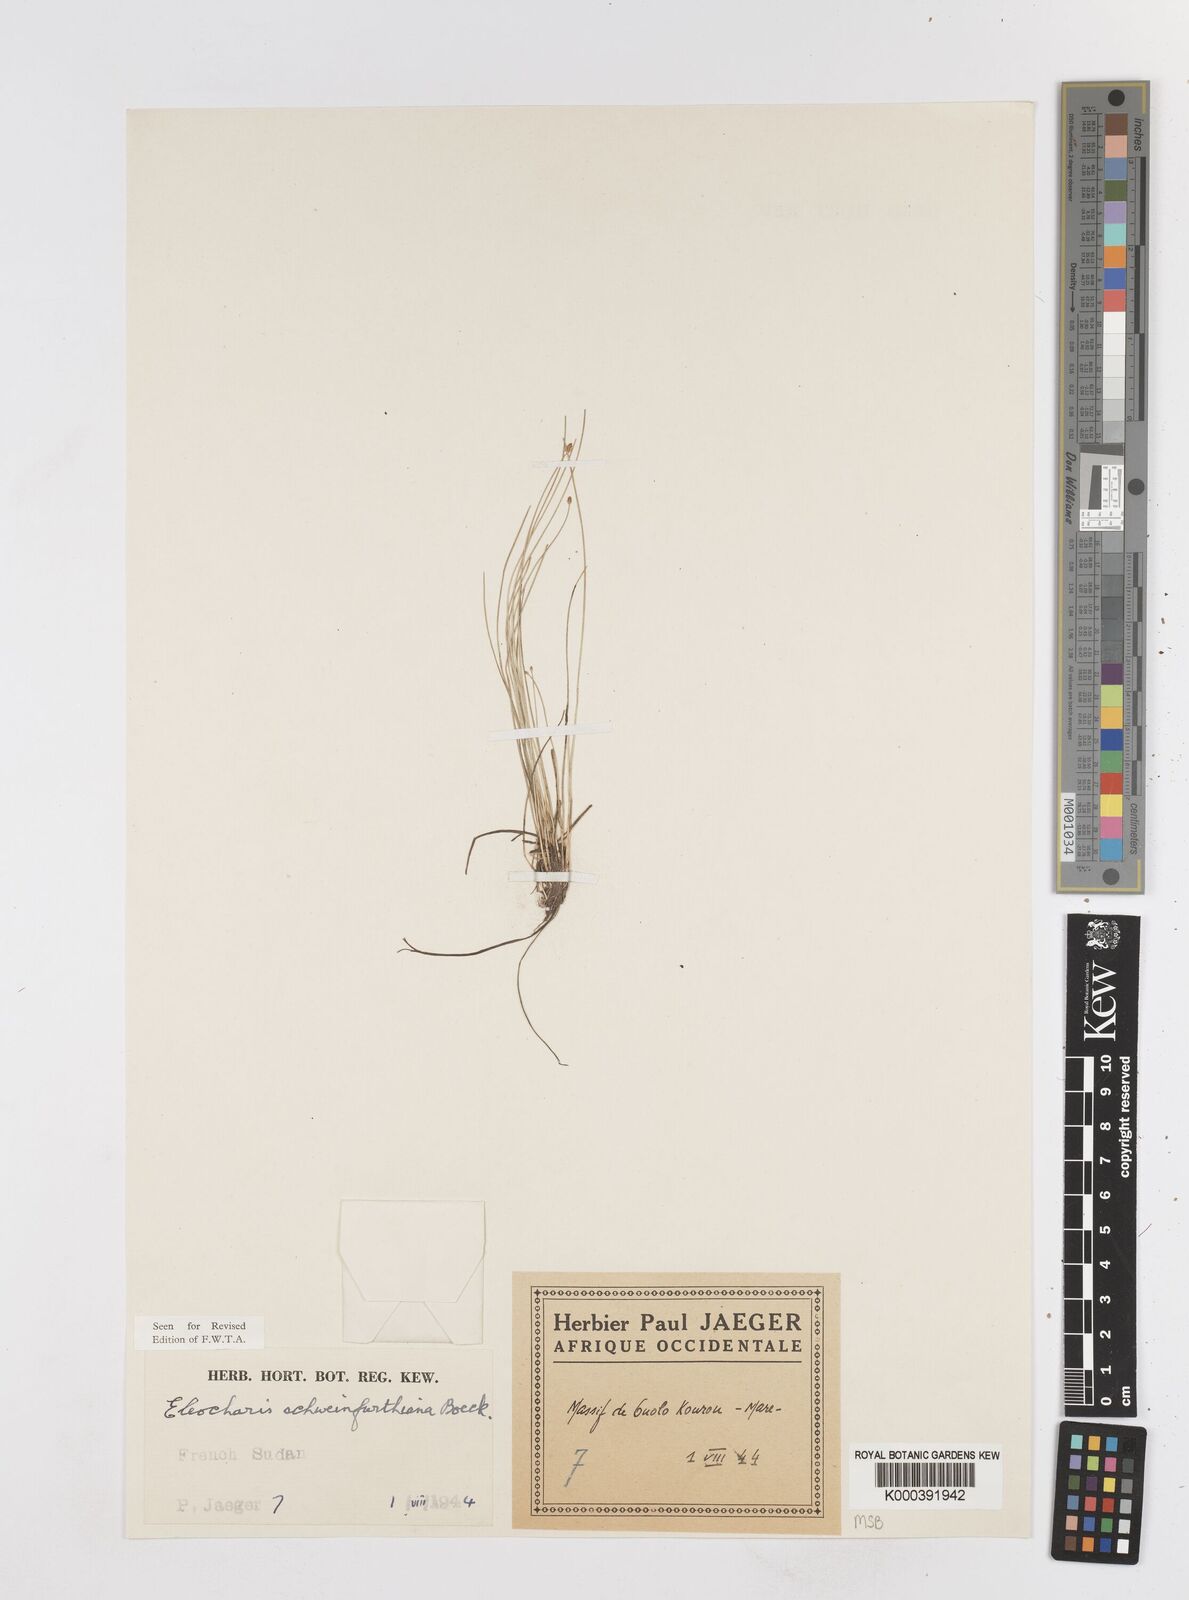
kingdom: Plantae
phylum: Tracheophyta
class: Liliopsida
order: Poales
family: Cyperaceae
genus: Eleocharis
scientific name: Eleocharis setifolia
